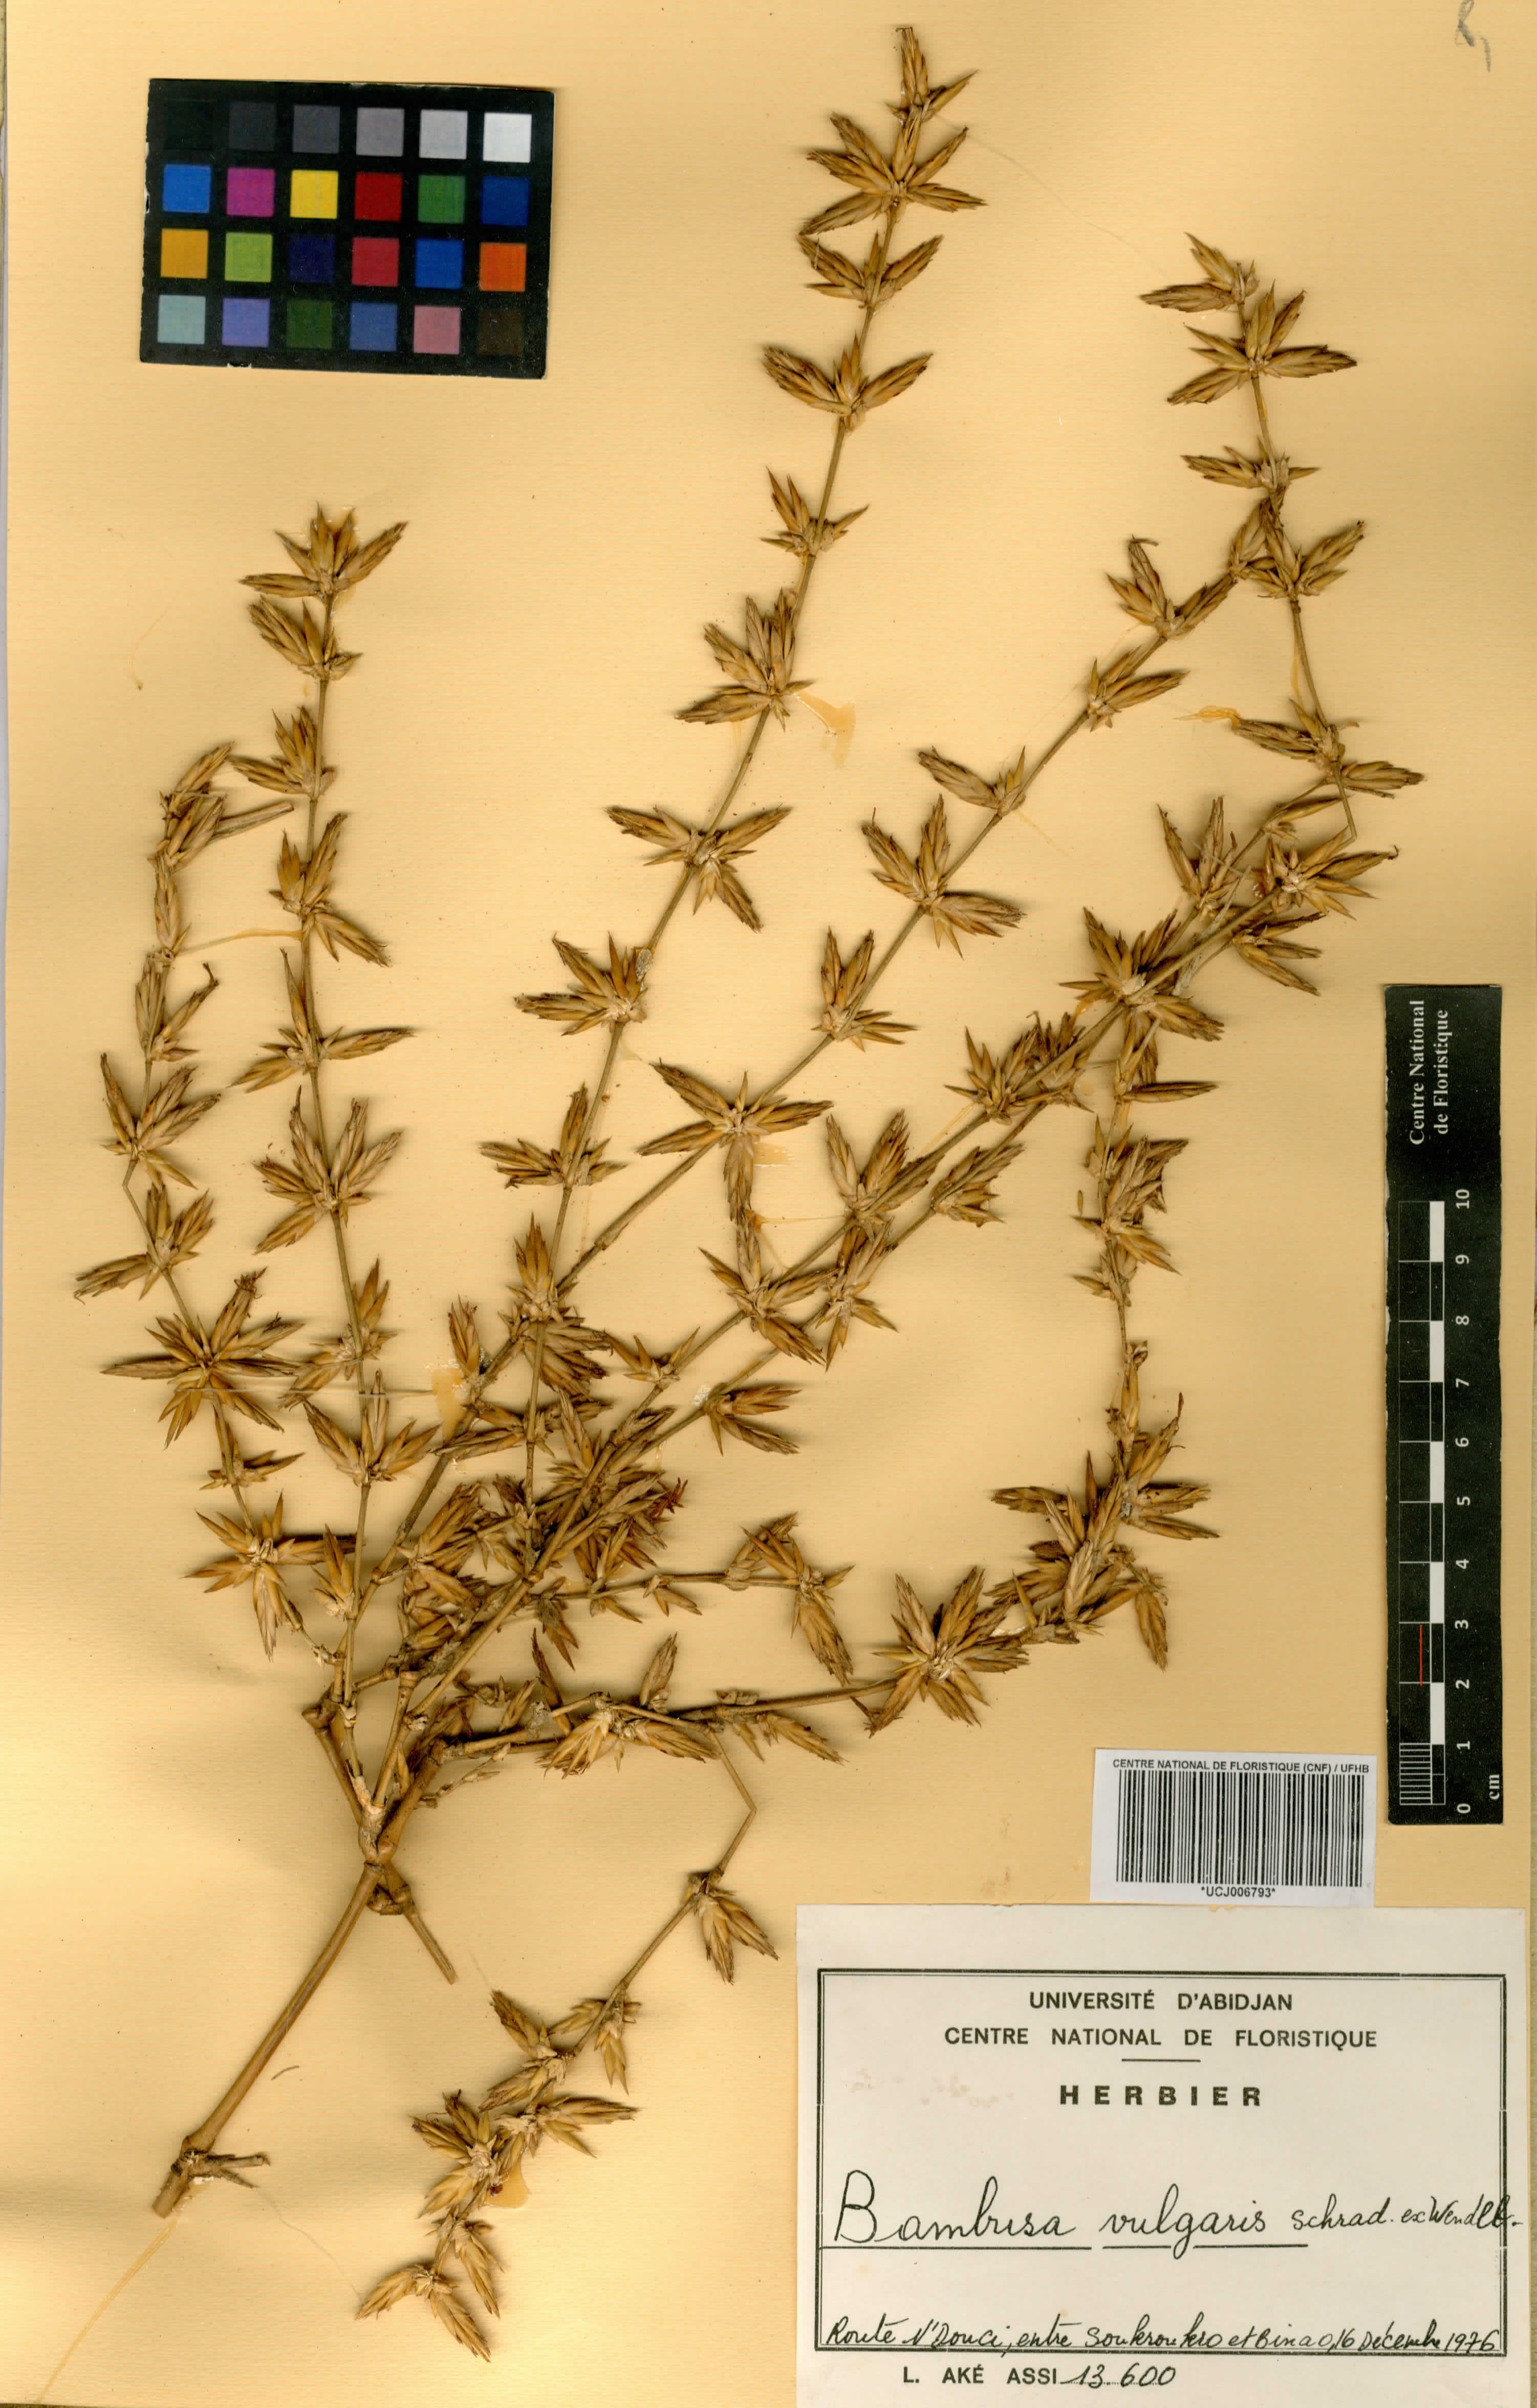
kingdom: Plantae
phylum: Tracheophyta
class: Liliopsida
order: Poales
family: Poaceae
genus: Bambusa
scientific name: Bambusa vulgaris
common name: Common bamboo
